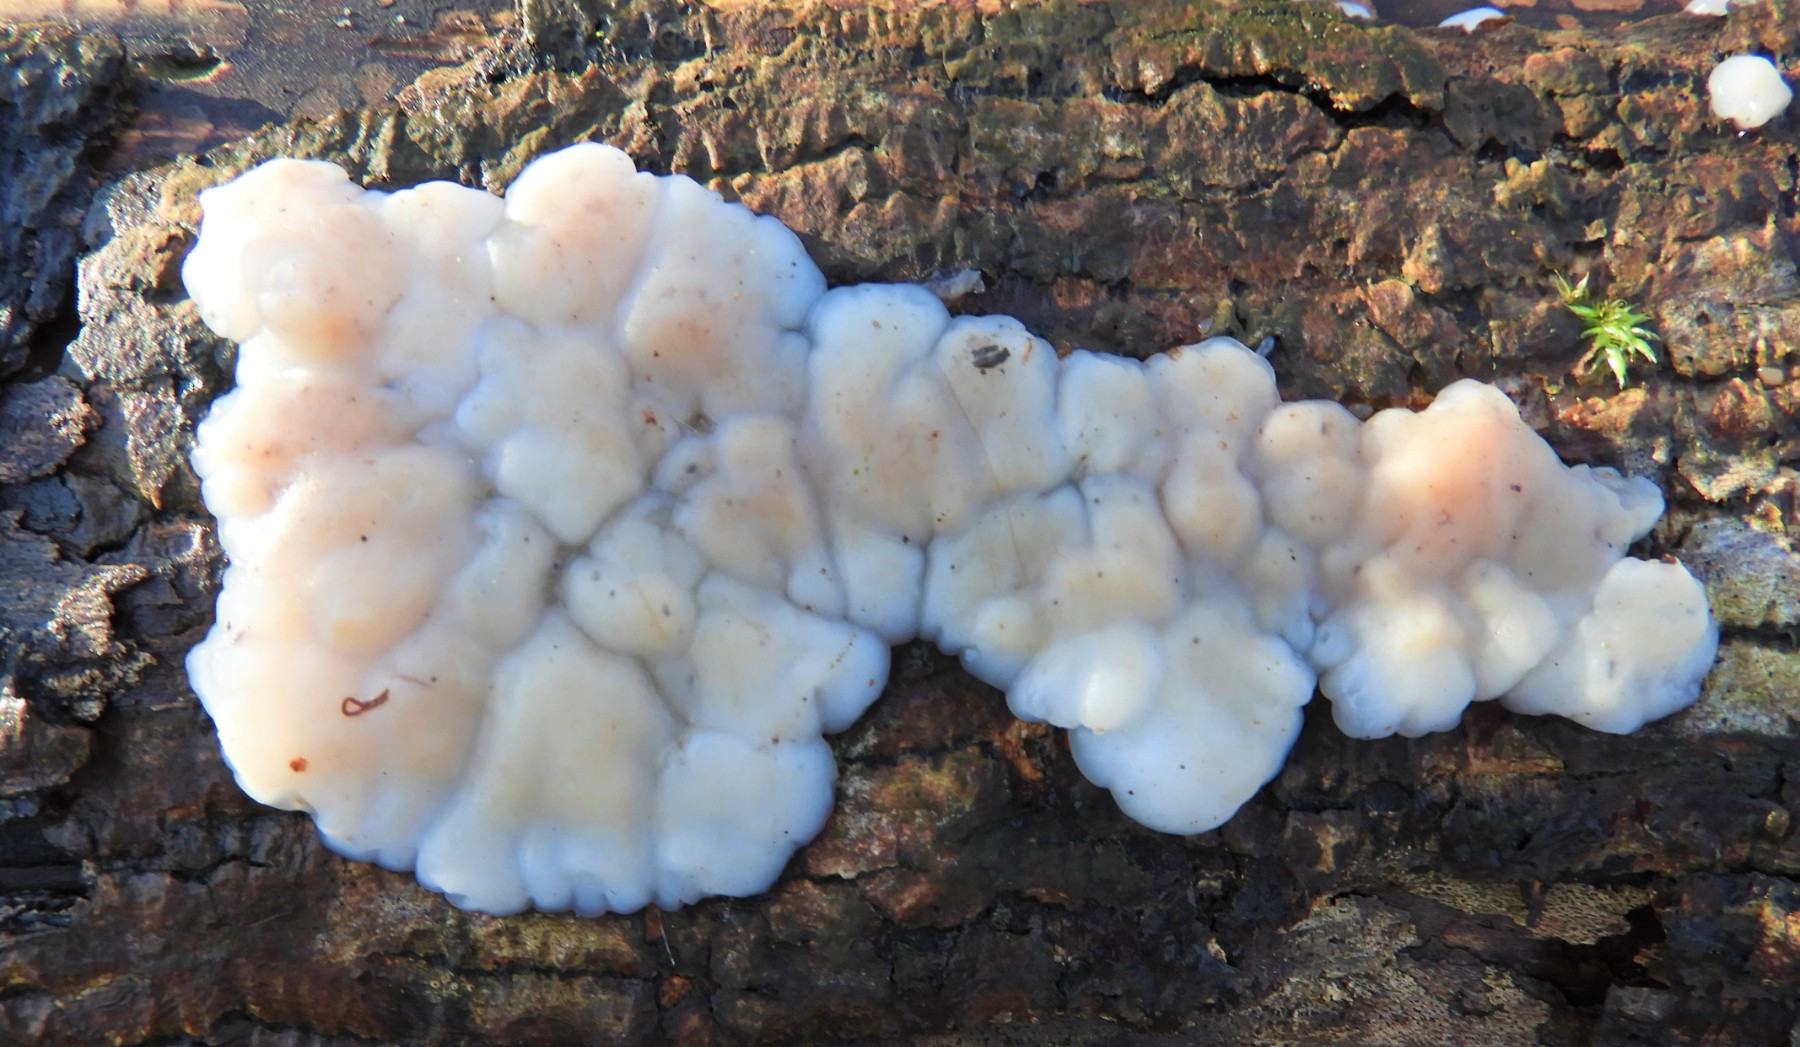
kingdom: Fungi
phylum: Basidiomycota
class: Agaricomycetes
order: Auriculariales
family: Auriculariaceae
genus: Exidia
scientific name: Exidia thuretiana
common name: hvidlig bævretop
